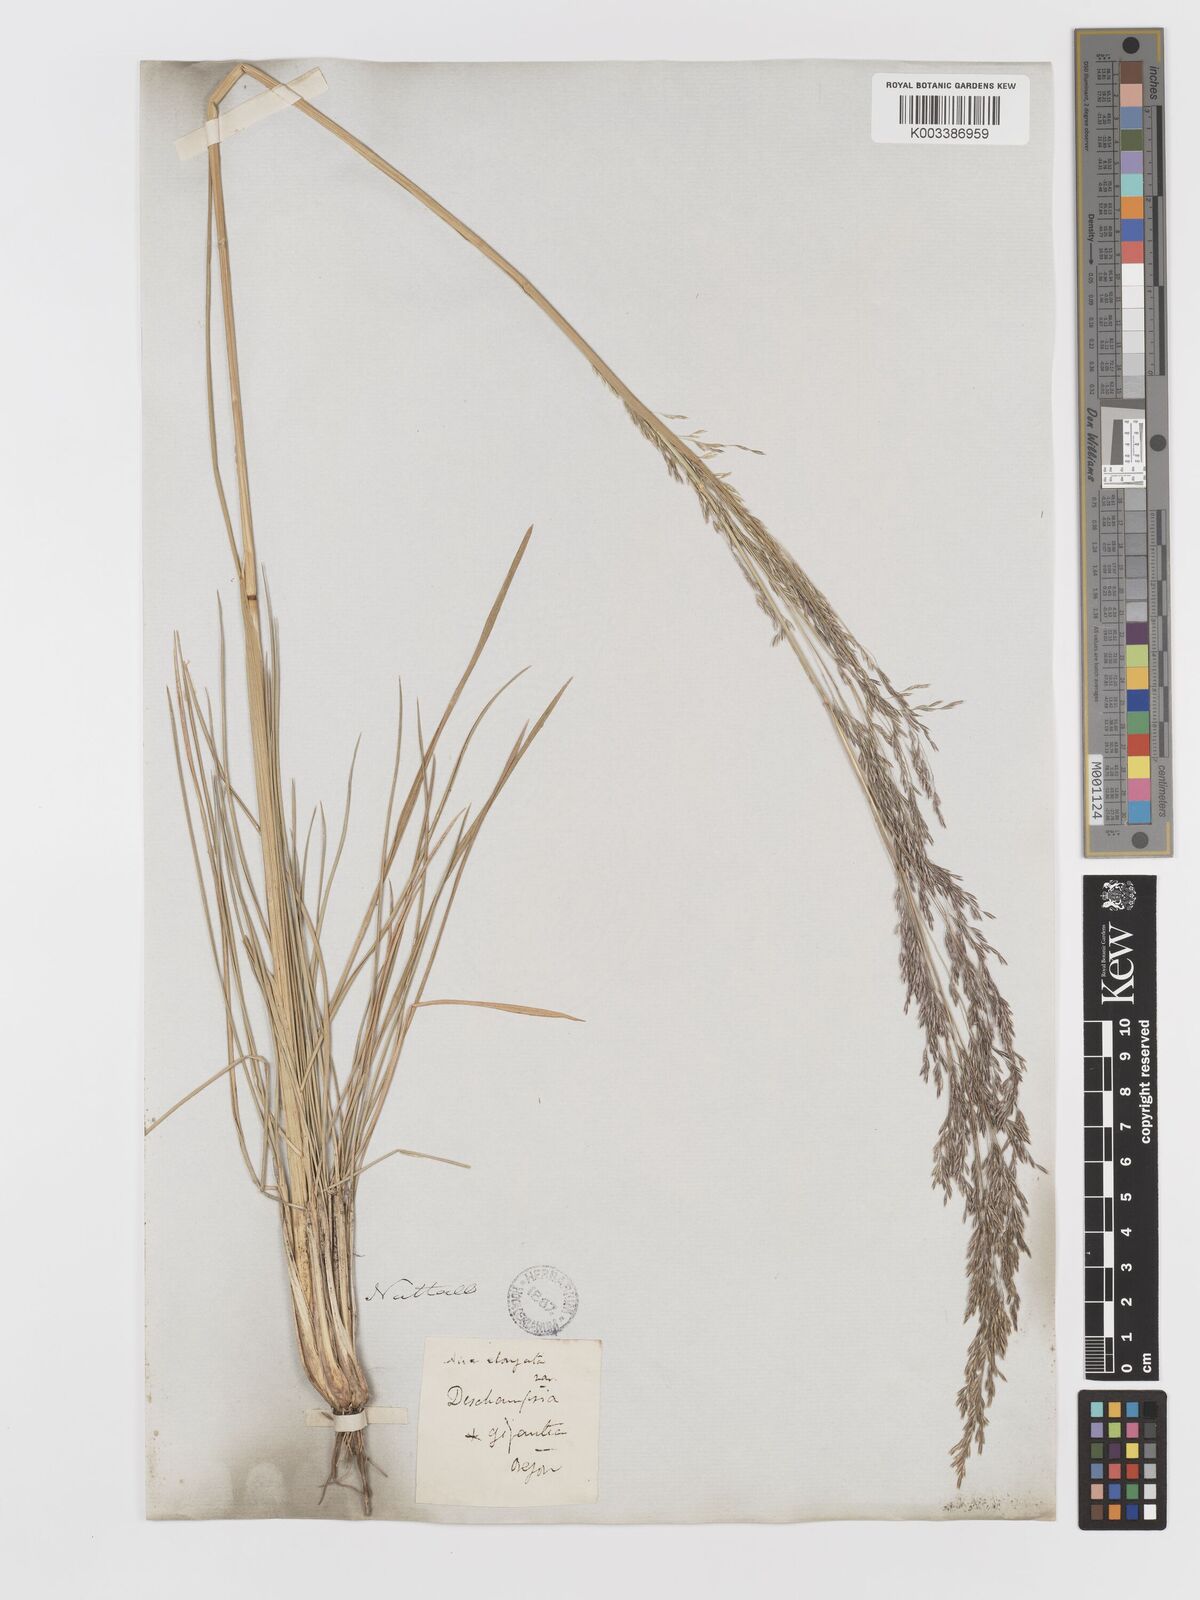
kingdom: Plantae
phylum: Tracheophyta
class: Liliopsida
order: Poales
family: Poaceae
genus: Deschampsia
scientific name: Deschampsia elongata
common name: Slender hairgrass
